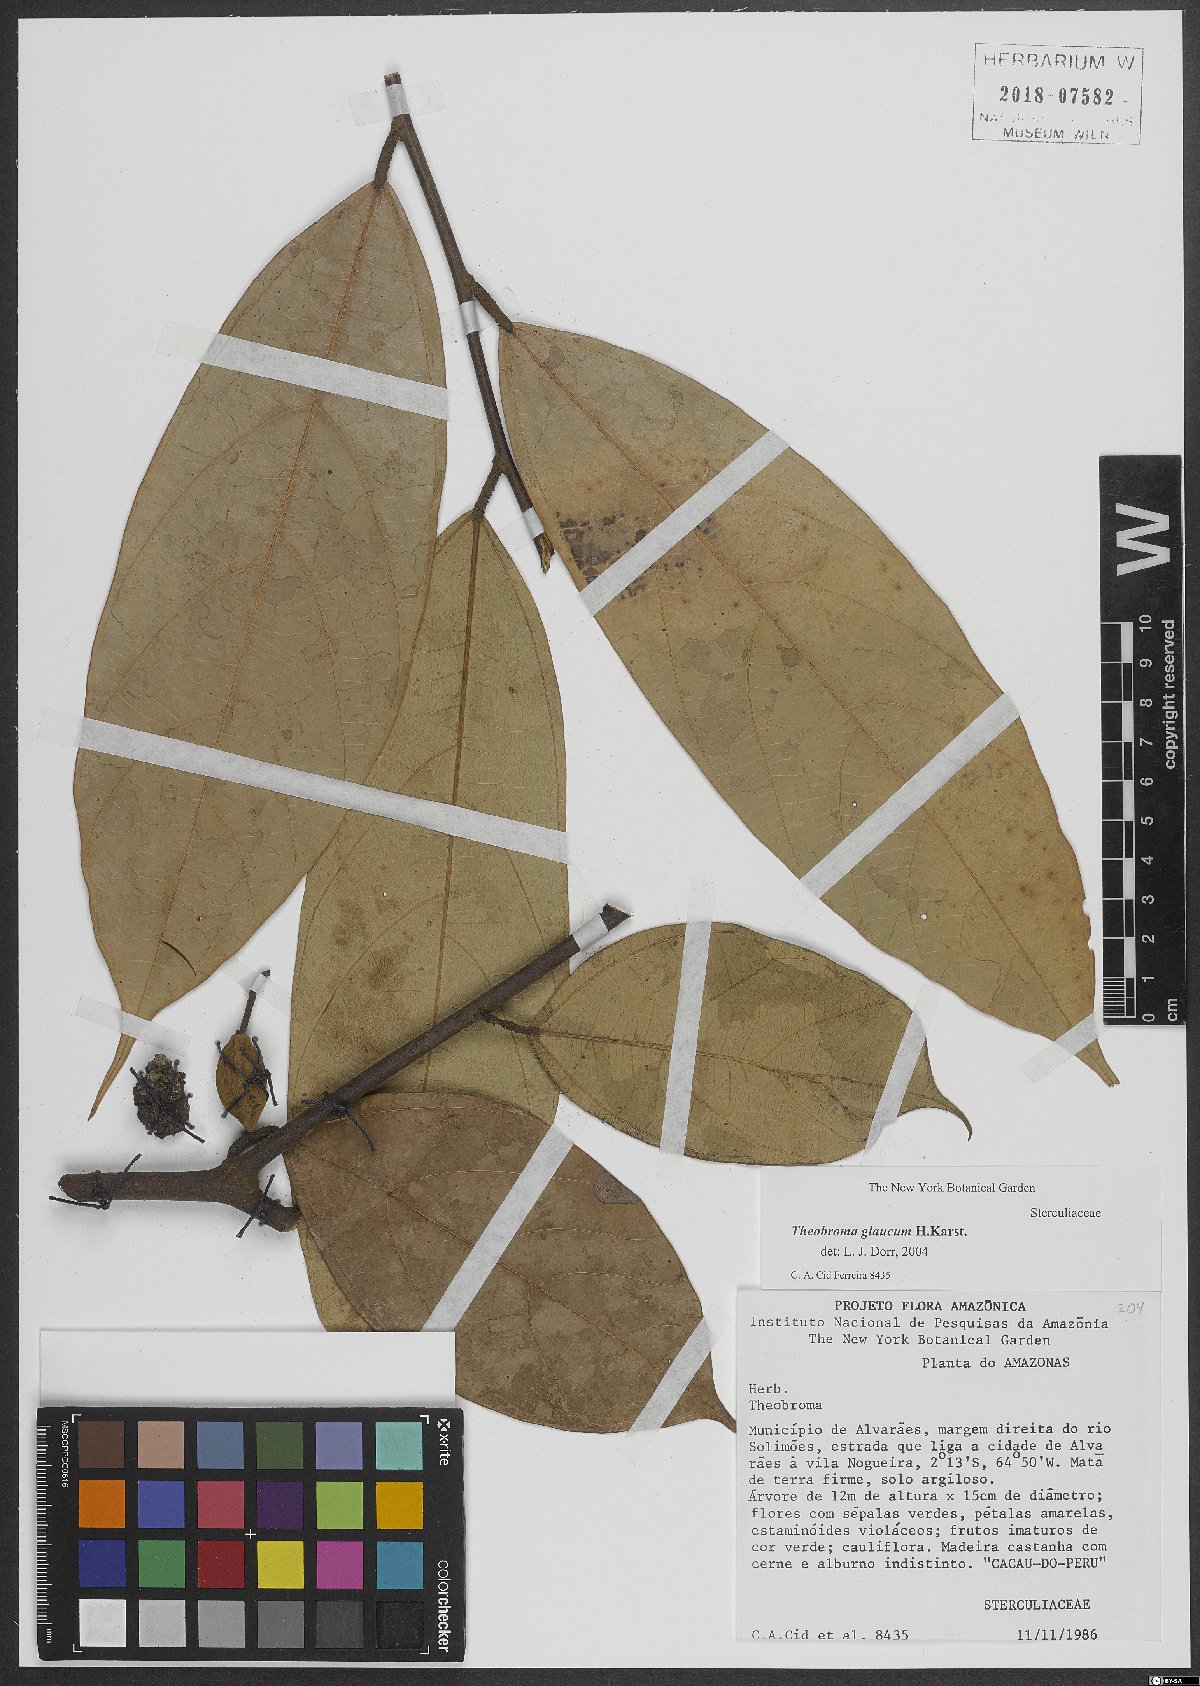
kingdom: Plantae
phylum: Tracheophyta
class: Magnoliopsida
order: Malvales
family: Malvaceae
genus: Theobroma
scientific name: Theobroma glaucum
